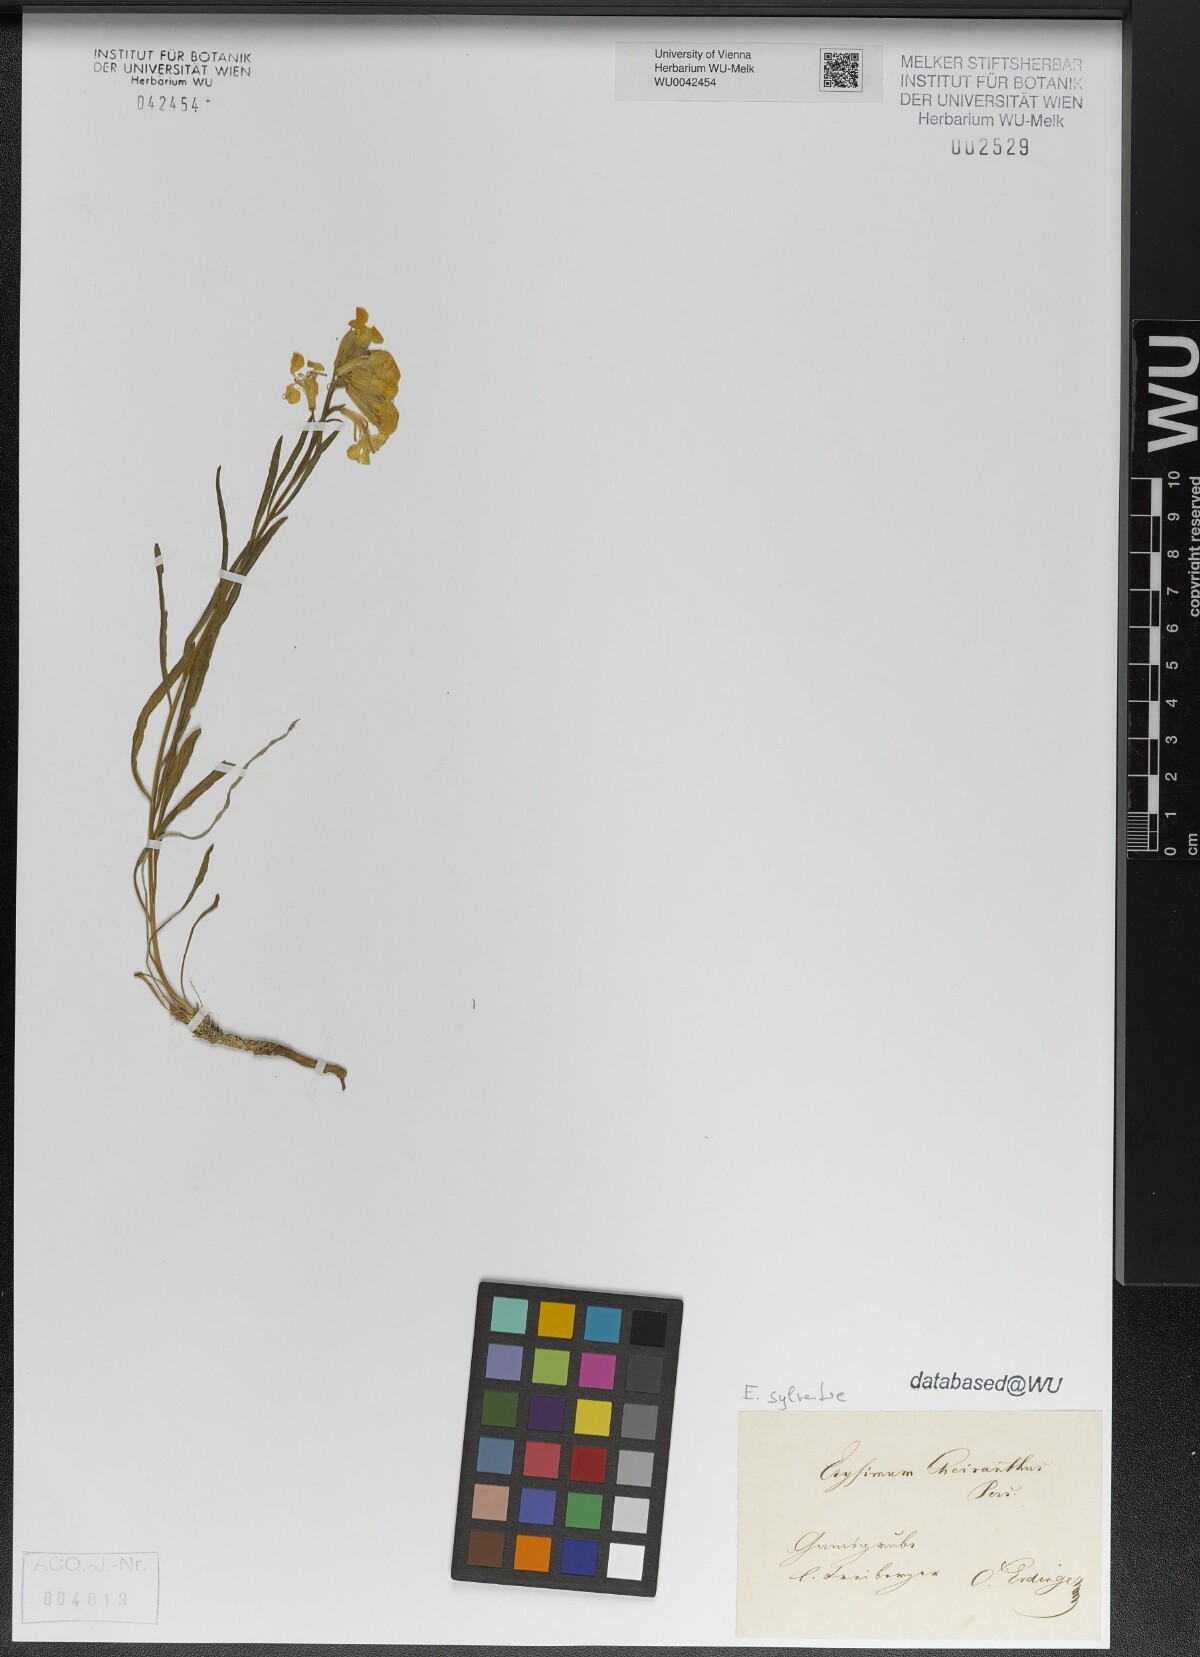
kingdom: Plantae
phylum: Tracheophyta
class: Magnoliopsida
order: Brassicales
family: Brassicaceae
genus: Erysimum
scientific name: Erysimum sylvestre
